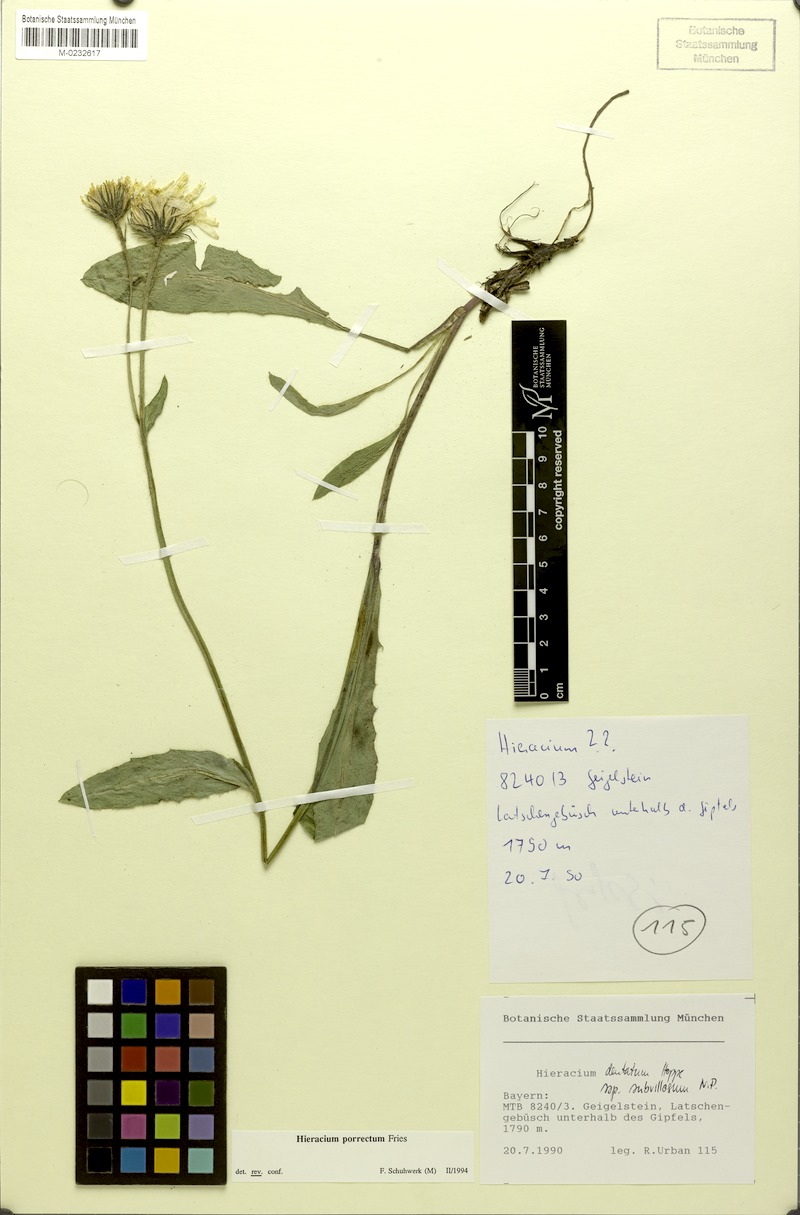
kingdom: Plantae
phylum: Tracheophyta
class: Magnoliopsida
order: Asterales
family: Asteraceae
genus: Hieracium
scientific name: Hieracium porrectum
